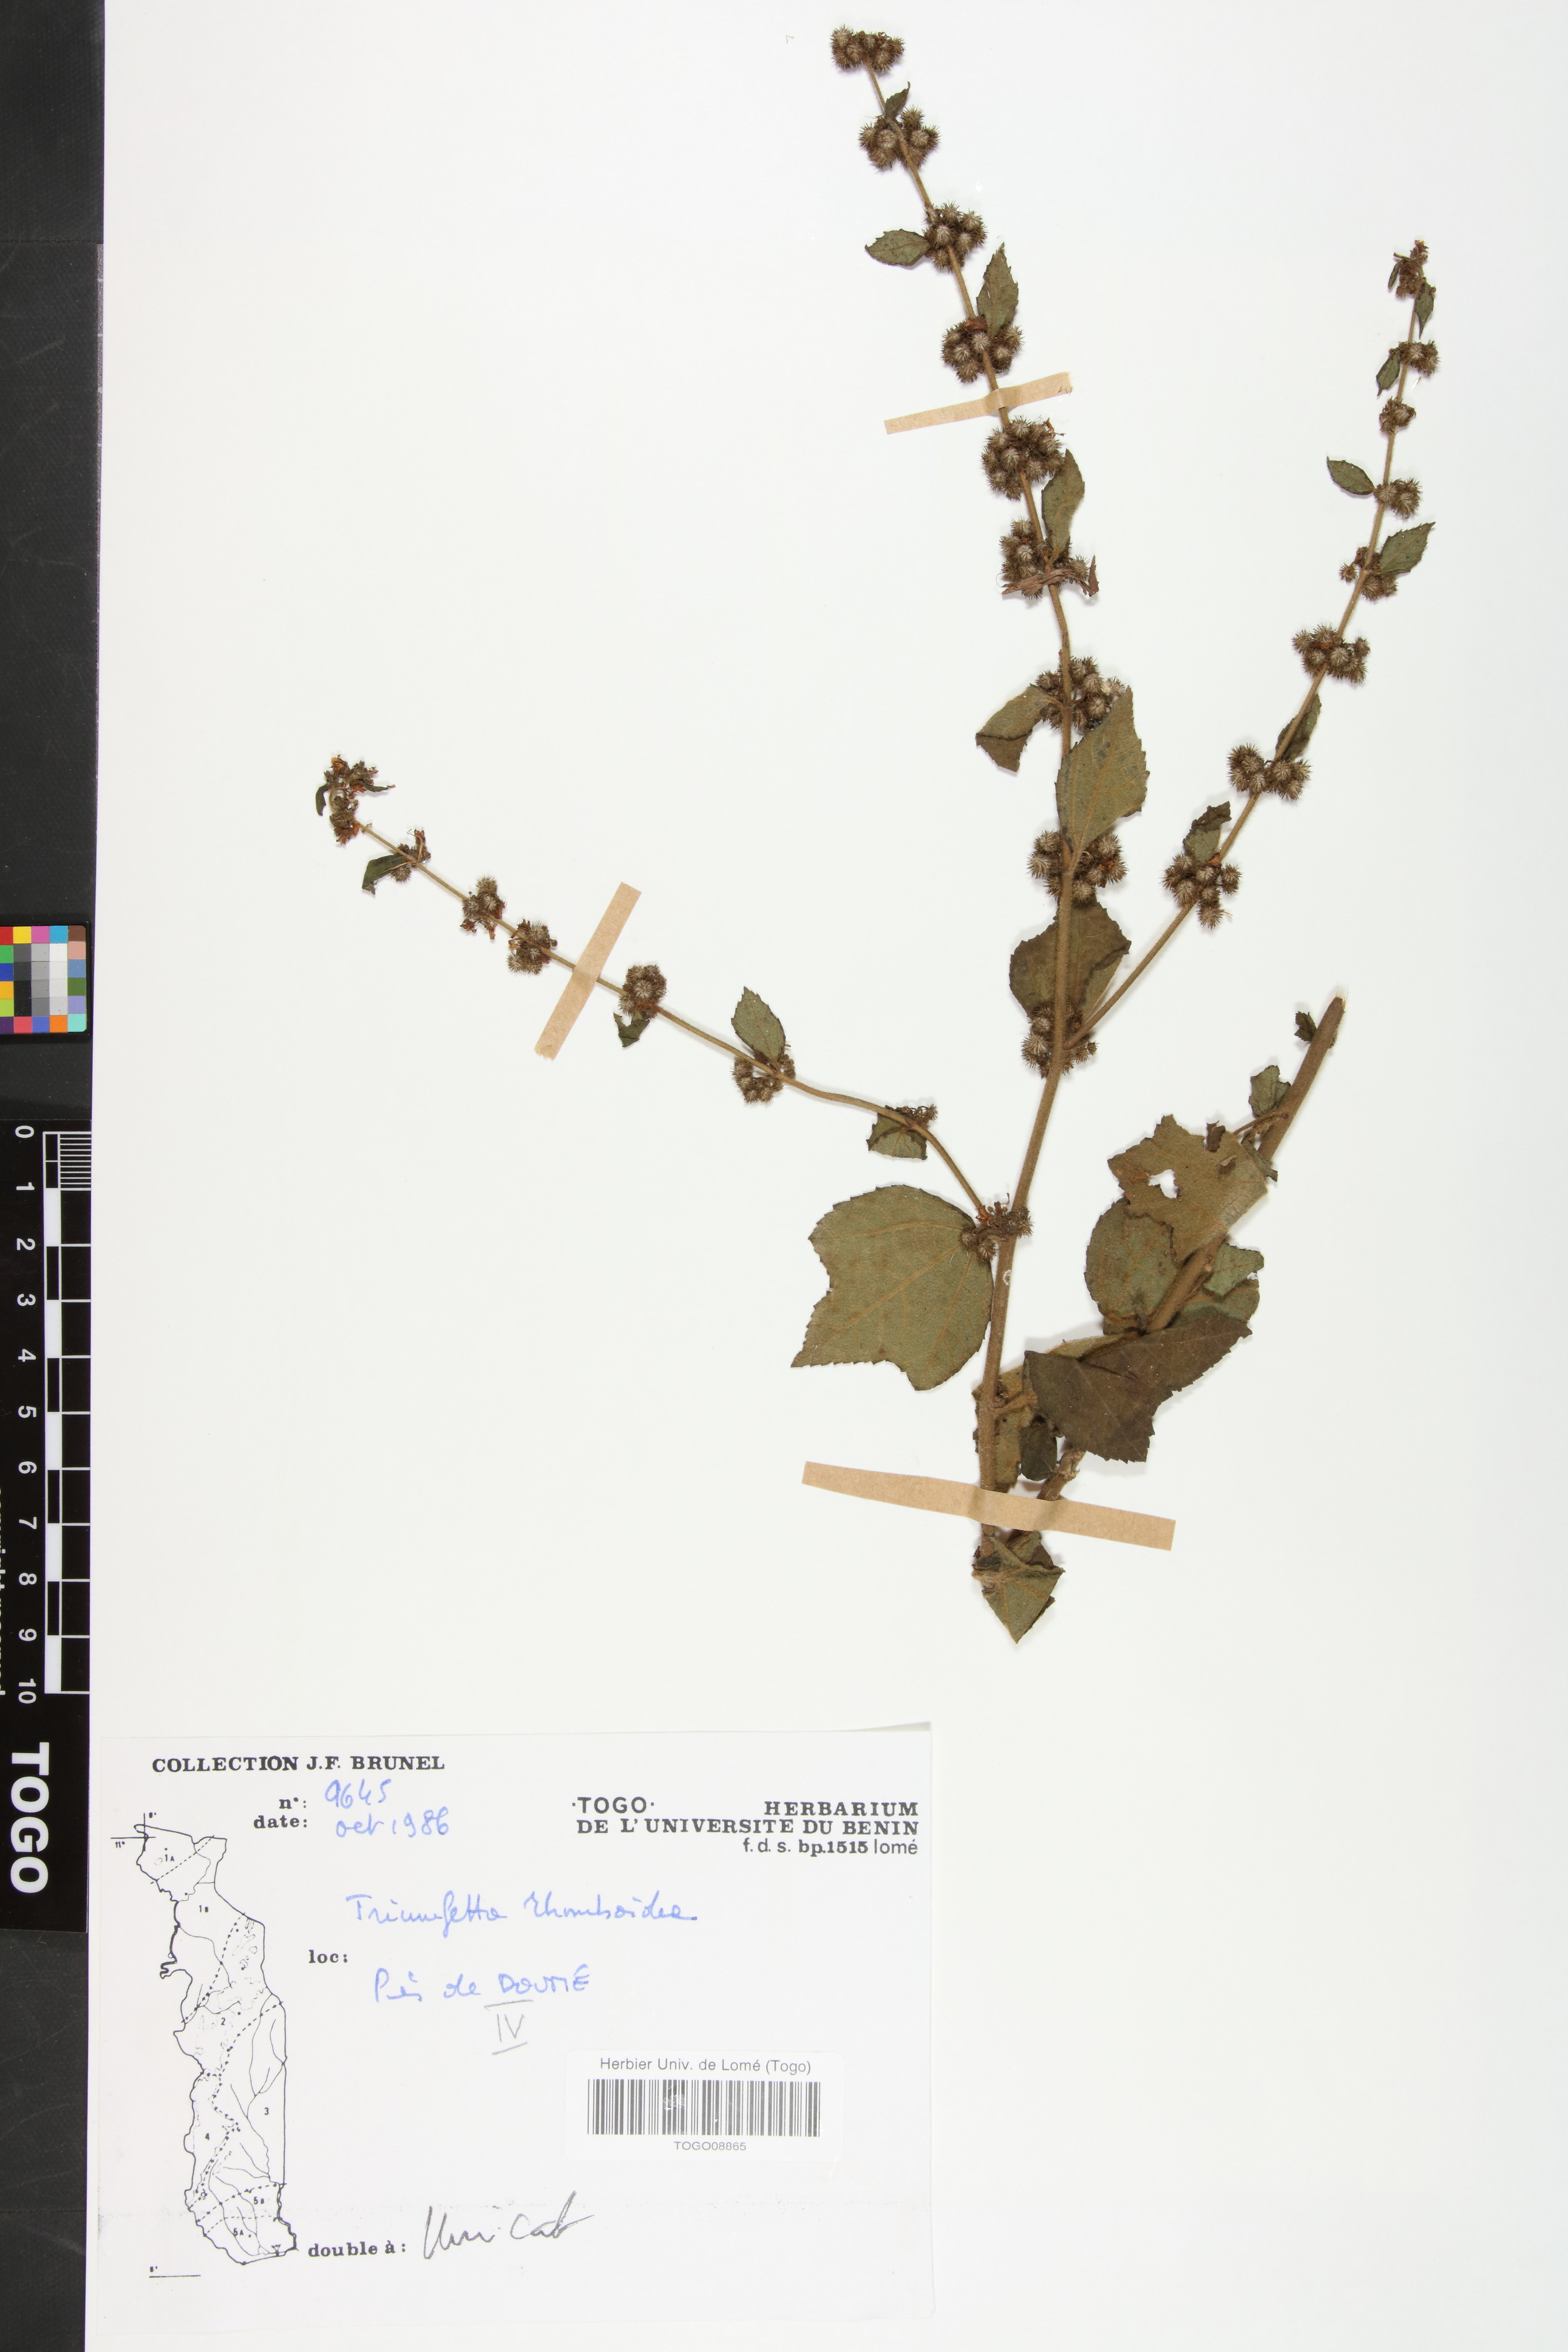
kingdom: Plantae
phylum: Tracheophyta
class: Magnoliopsida
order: Malvales
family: Malvaceae
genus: Triumfetta
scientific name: Triumfetta rhomboidea
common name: Diamond burbark
